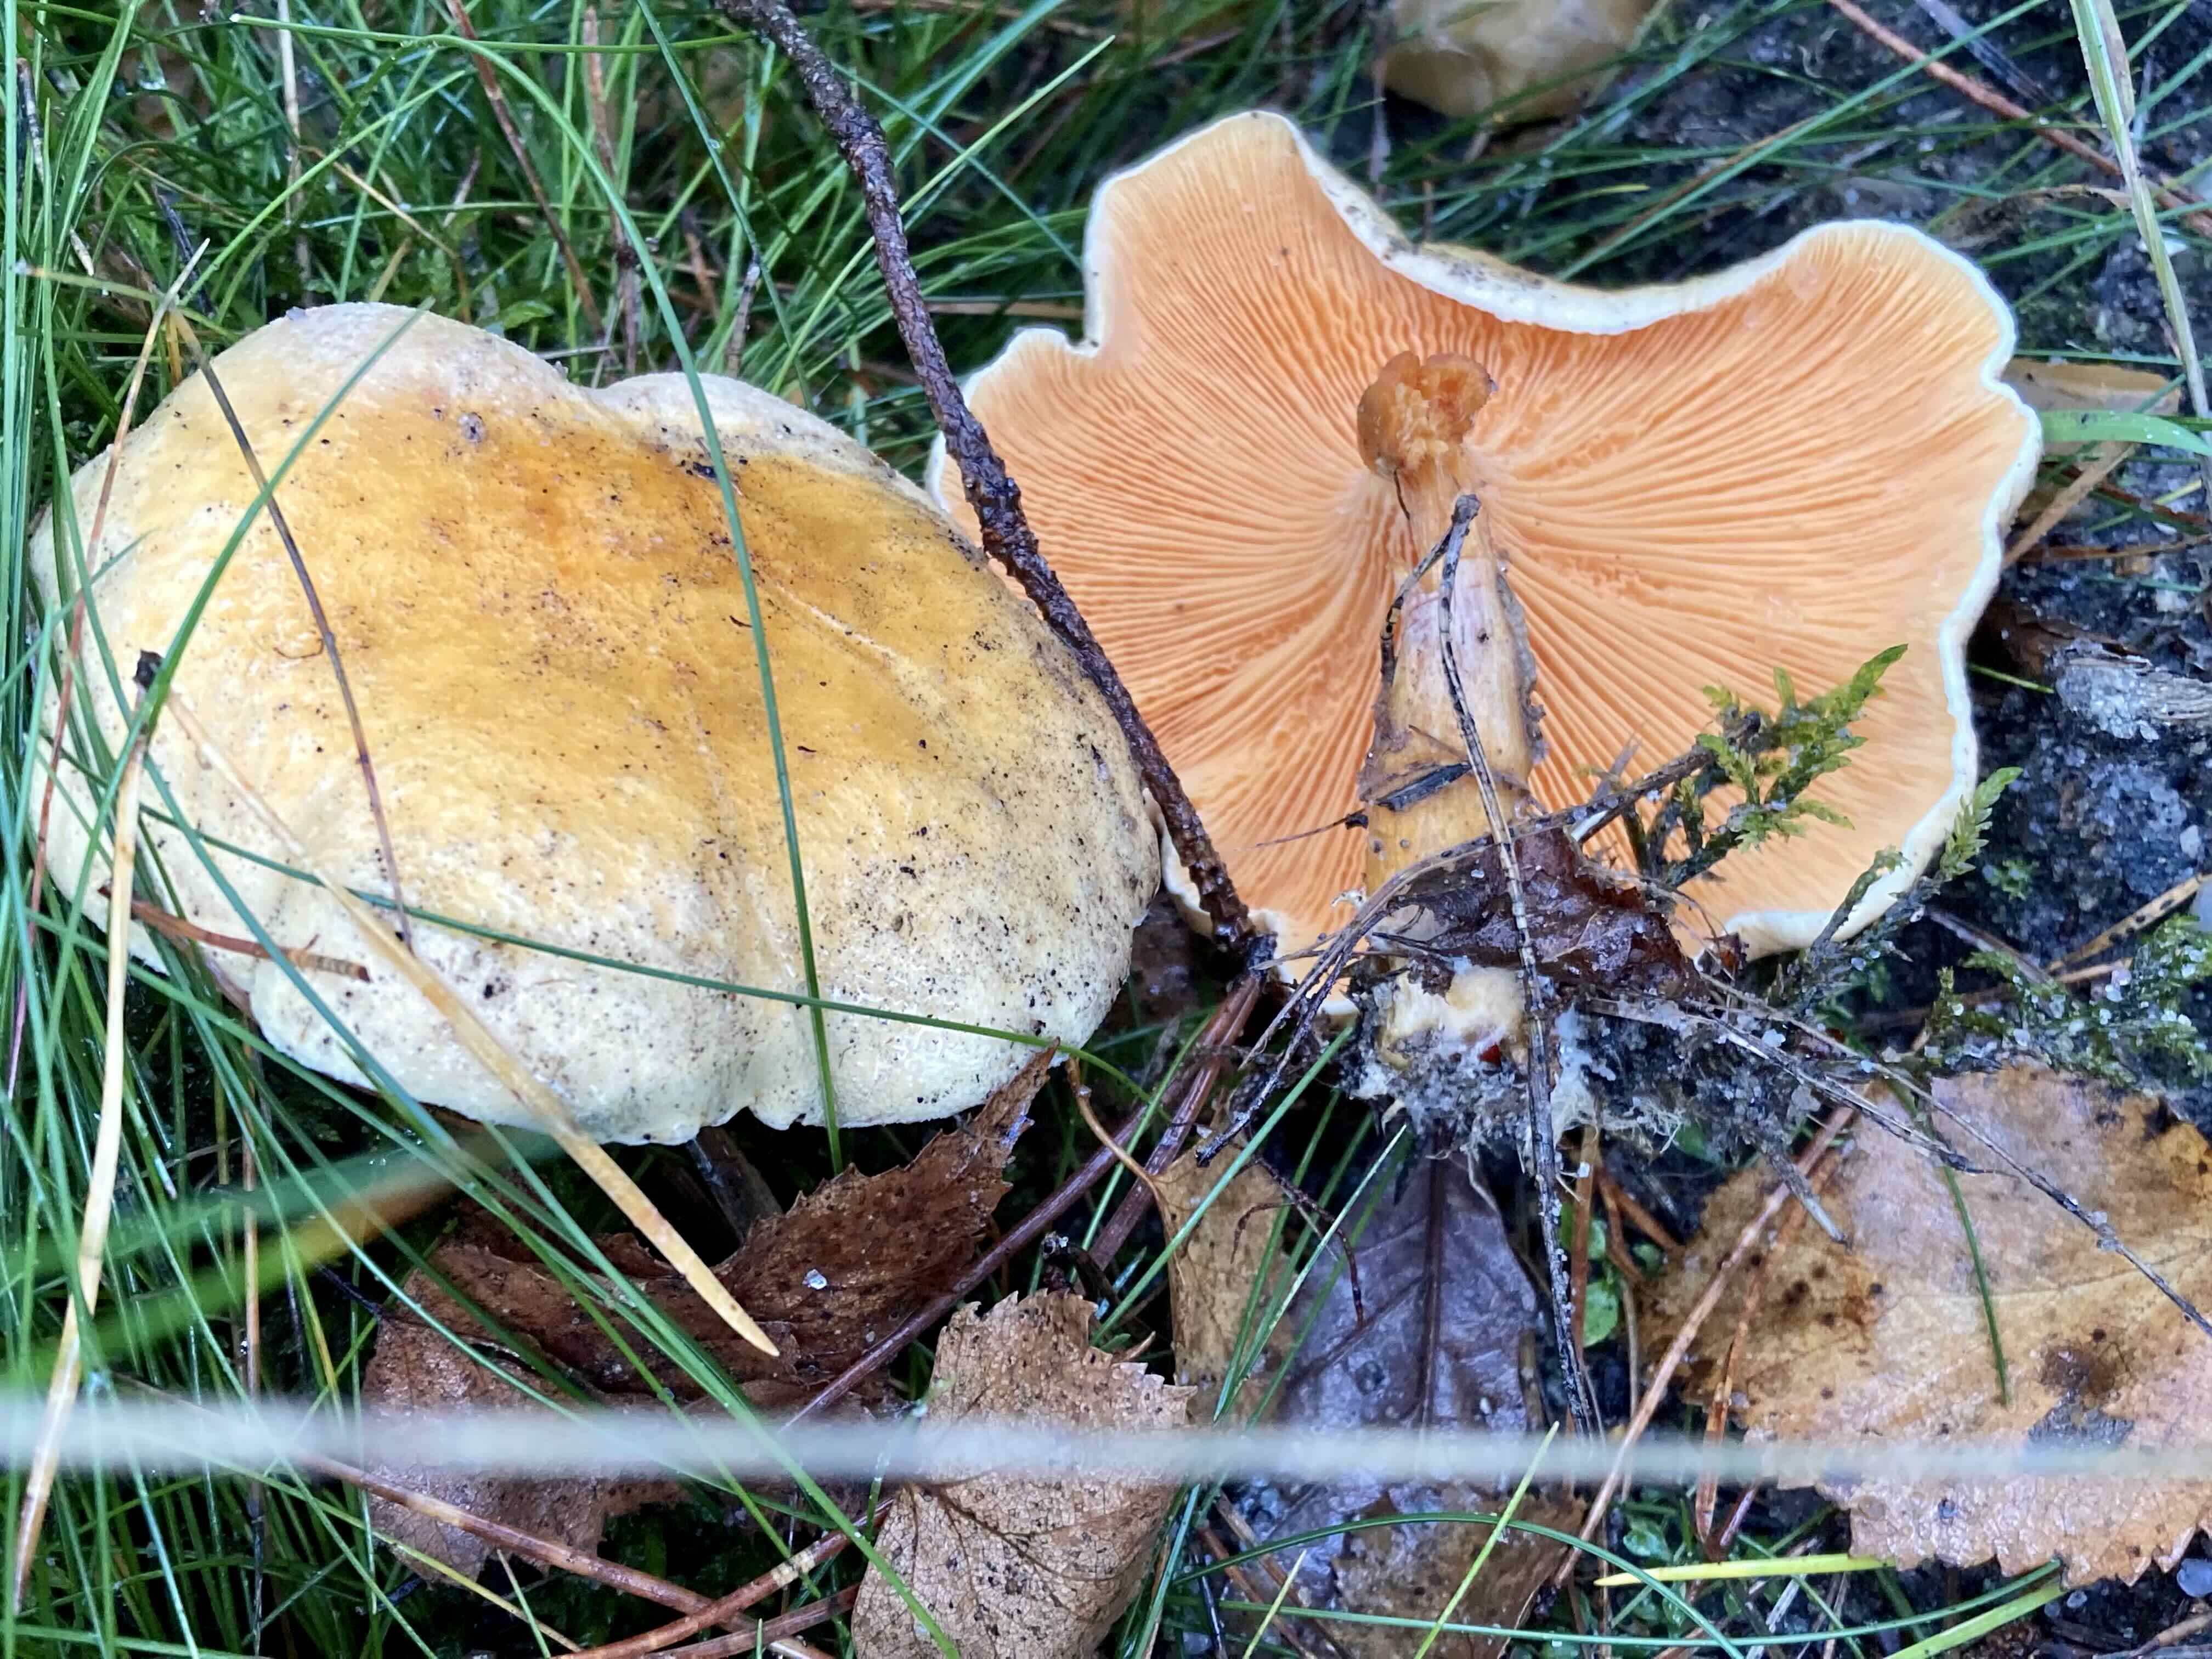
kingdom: Fungi
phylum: Basidiomycota
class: Agaricomycetes
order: Boletales
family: Hygrophoropsidaceae
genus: Hygrophoropsis
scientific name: Hygrophoropsis aurantiaca
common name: almindelig orangekantarel
